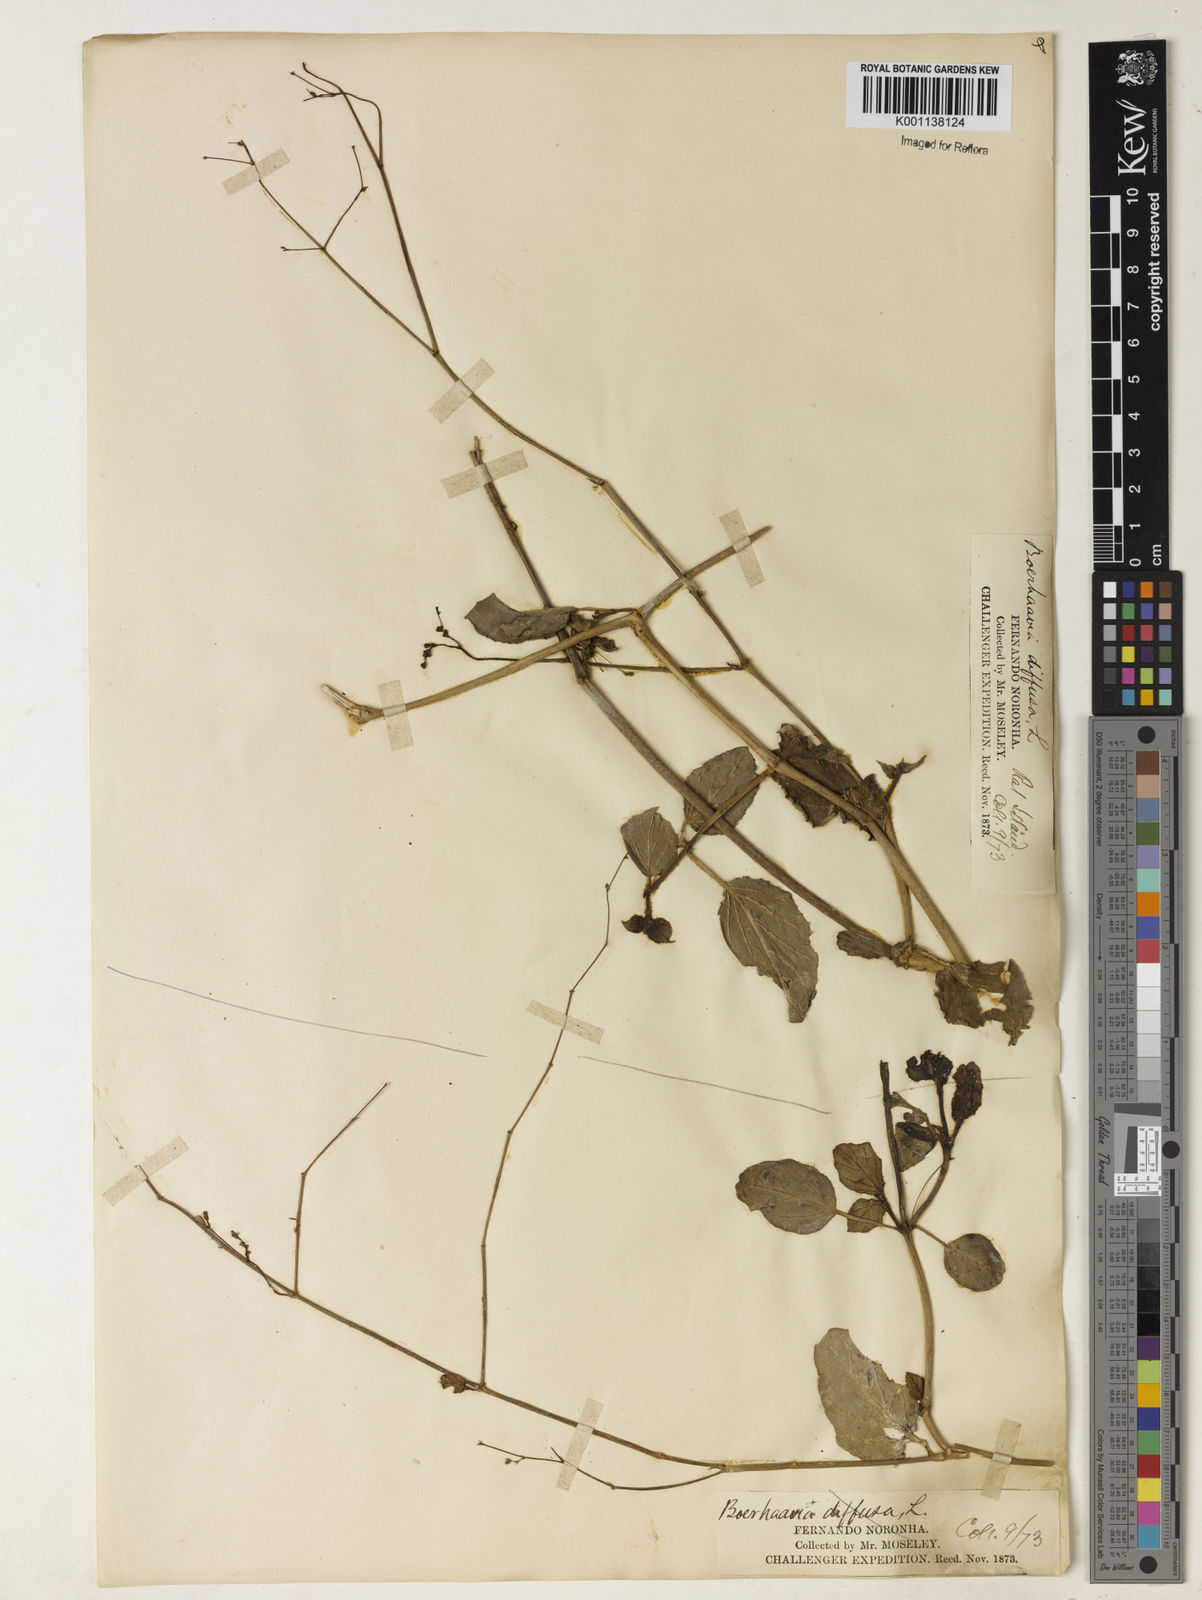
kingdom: Plantae
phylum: Tracheophyta
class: Magnoliopsida
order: Caryophyllales
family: Nyctaginaceae
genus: Boerhavia
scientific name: Boerhavia diffusa
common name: Red spiderling
